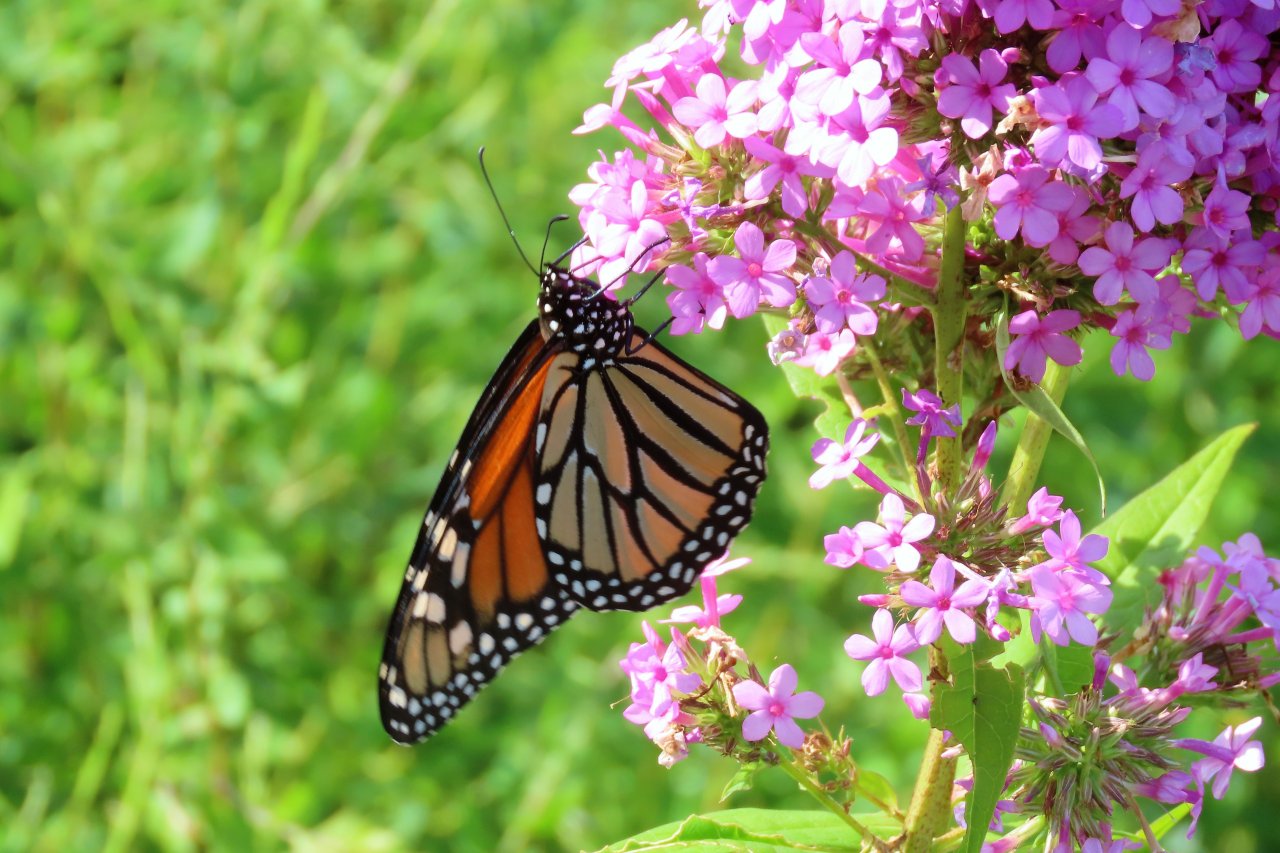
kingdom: Animalia
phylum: Arthropoda
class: Insecta
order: Lepidoptera
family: Nymphalidae
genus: Danaus
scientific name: Danaus plexippus
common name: Monarch
